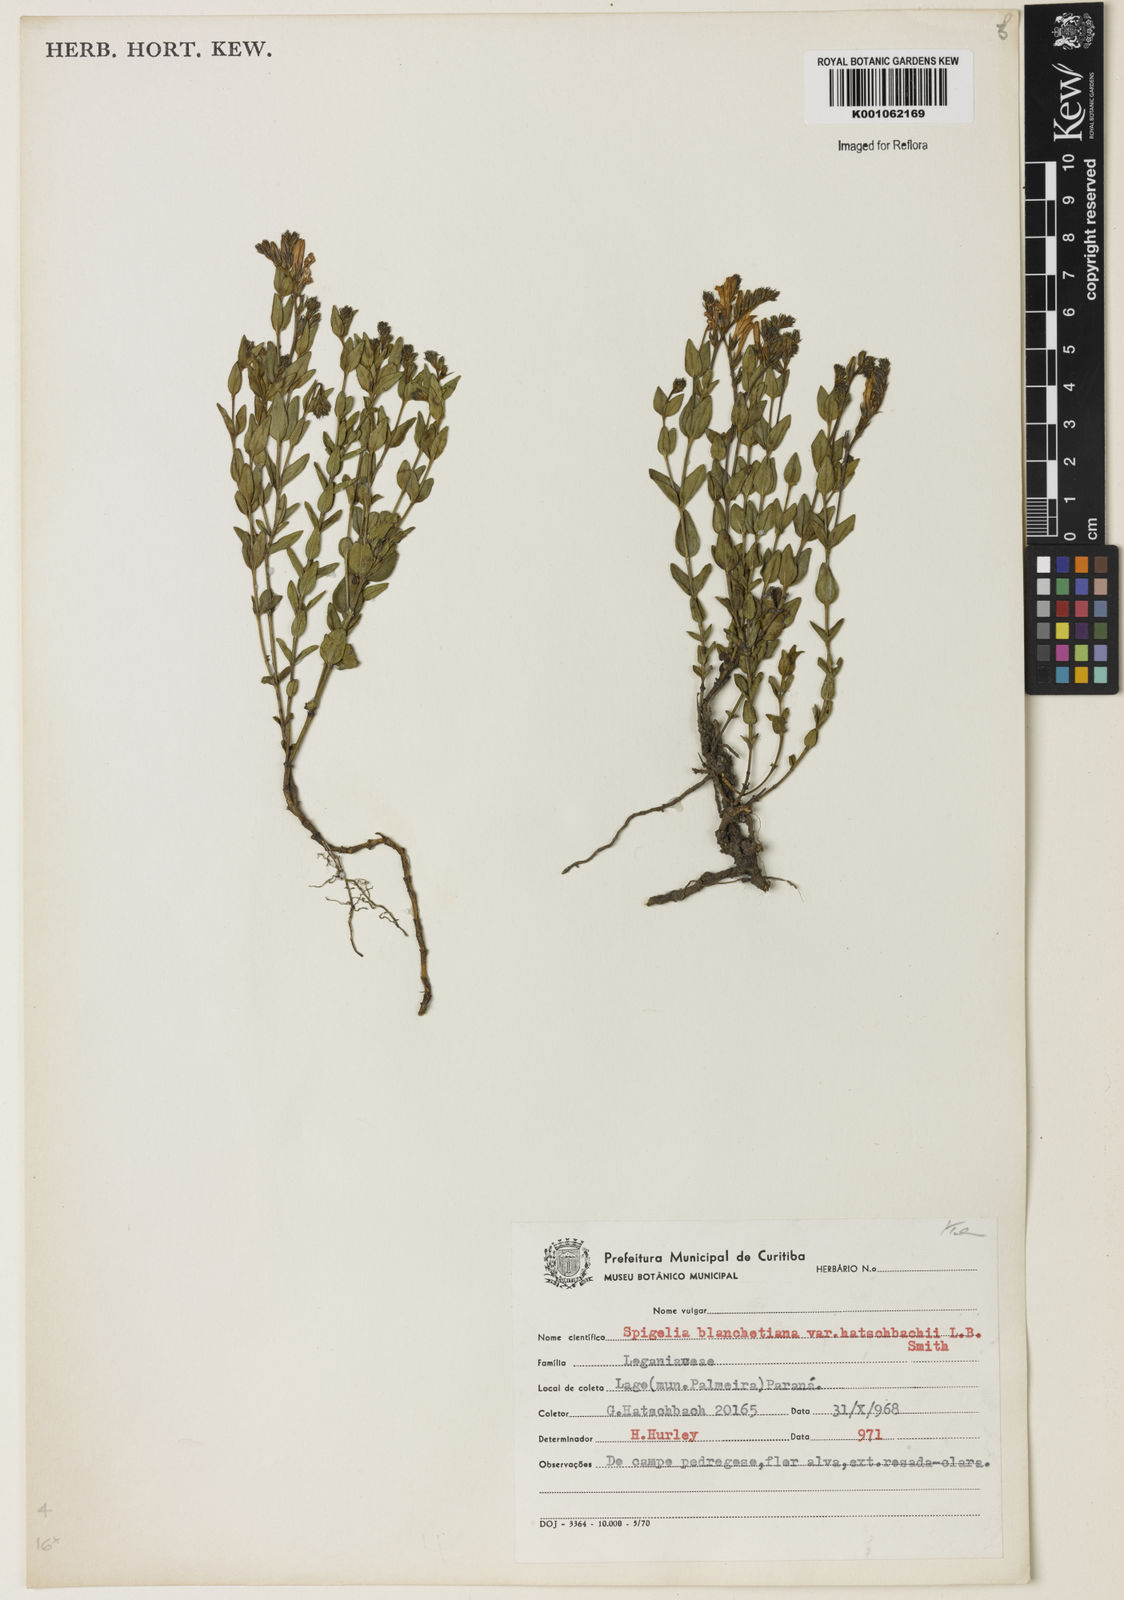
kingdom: Plantae
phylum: Tracheophyta
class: Magnoliopsida
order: Gentianales
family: Loganiaceae
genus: Spigelia
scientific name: Spigelia blanchetiana
